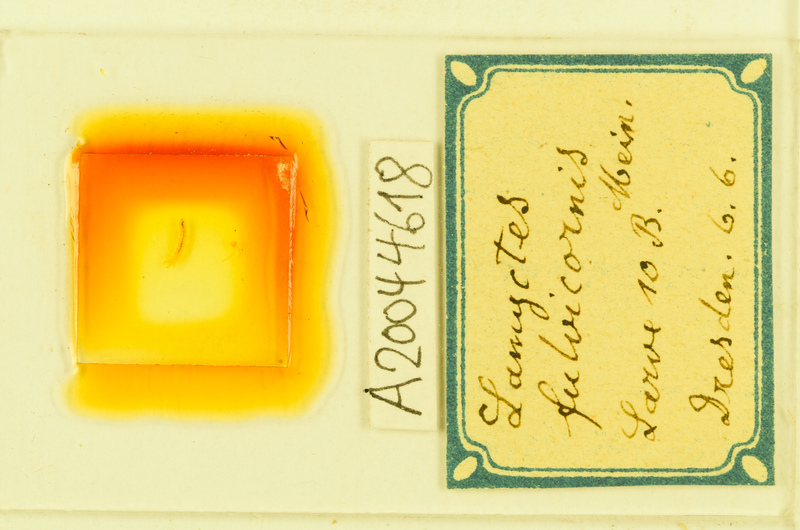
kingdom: Animalia
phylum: Arthropoda
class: Chilopoda
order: Lithobiomorpha
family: Henicopidae
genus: Lamyctes
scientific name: Lamyctes emarginatus
